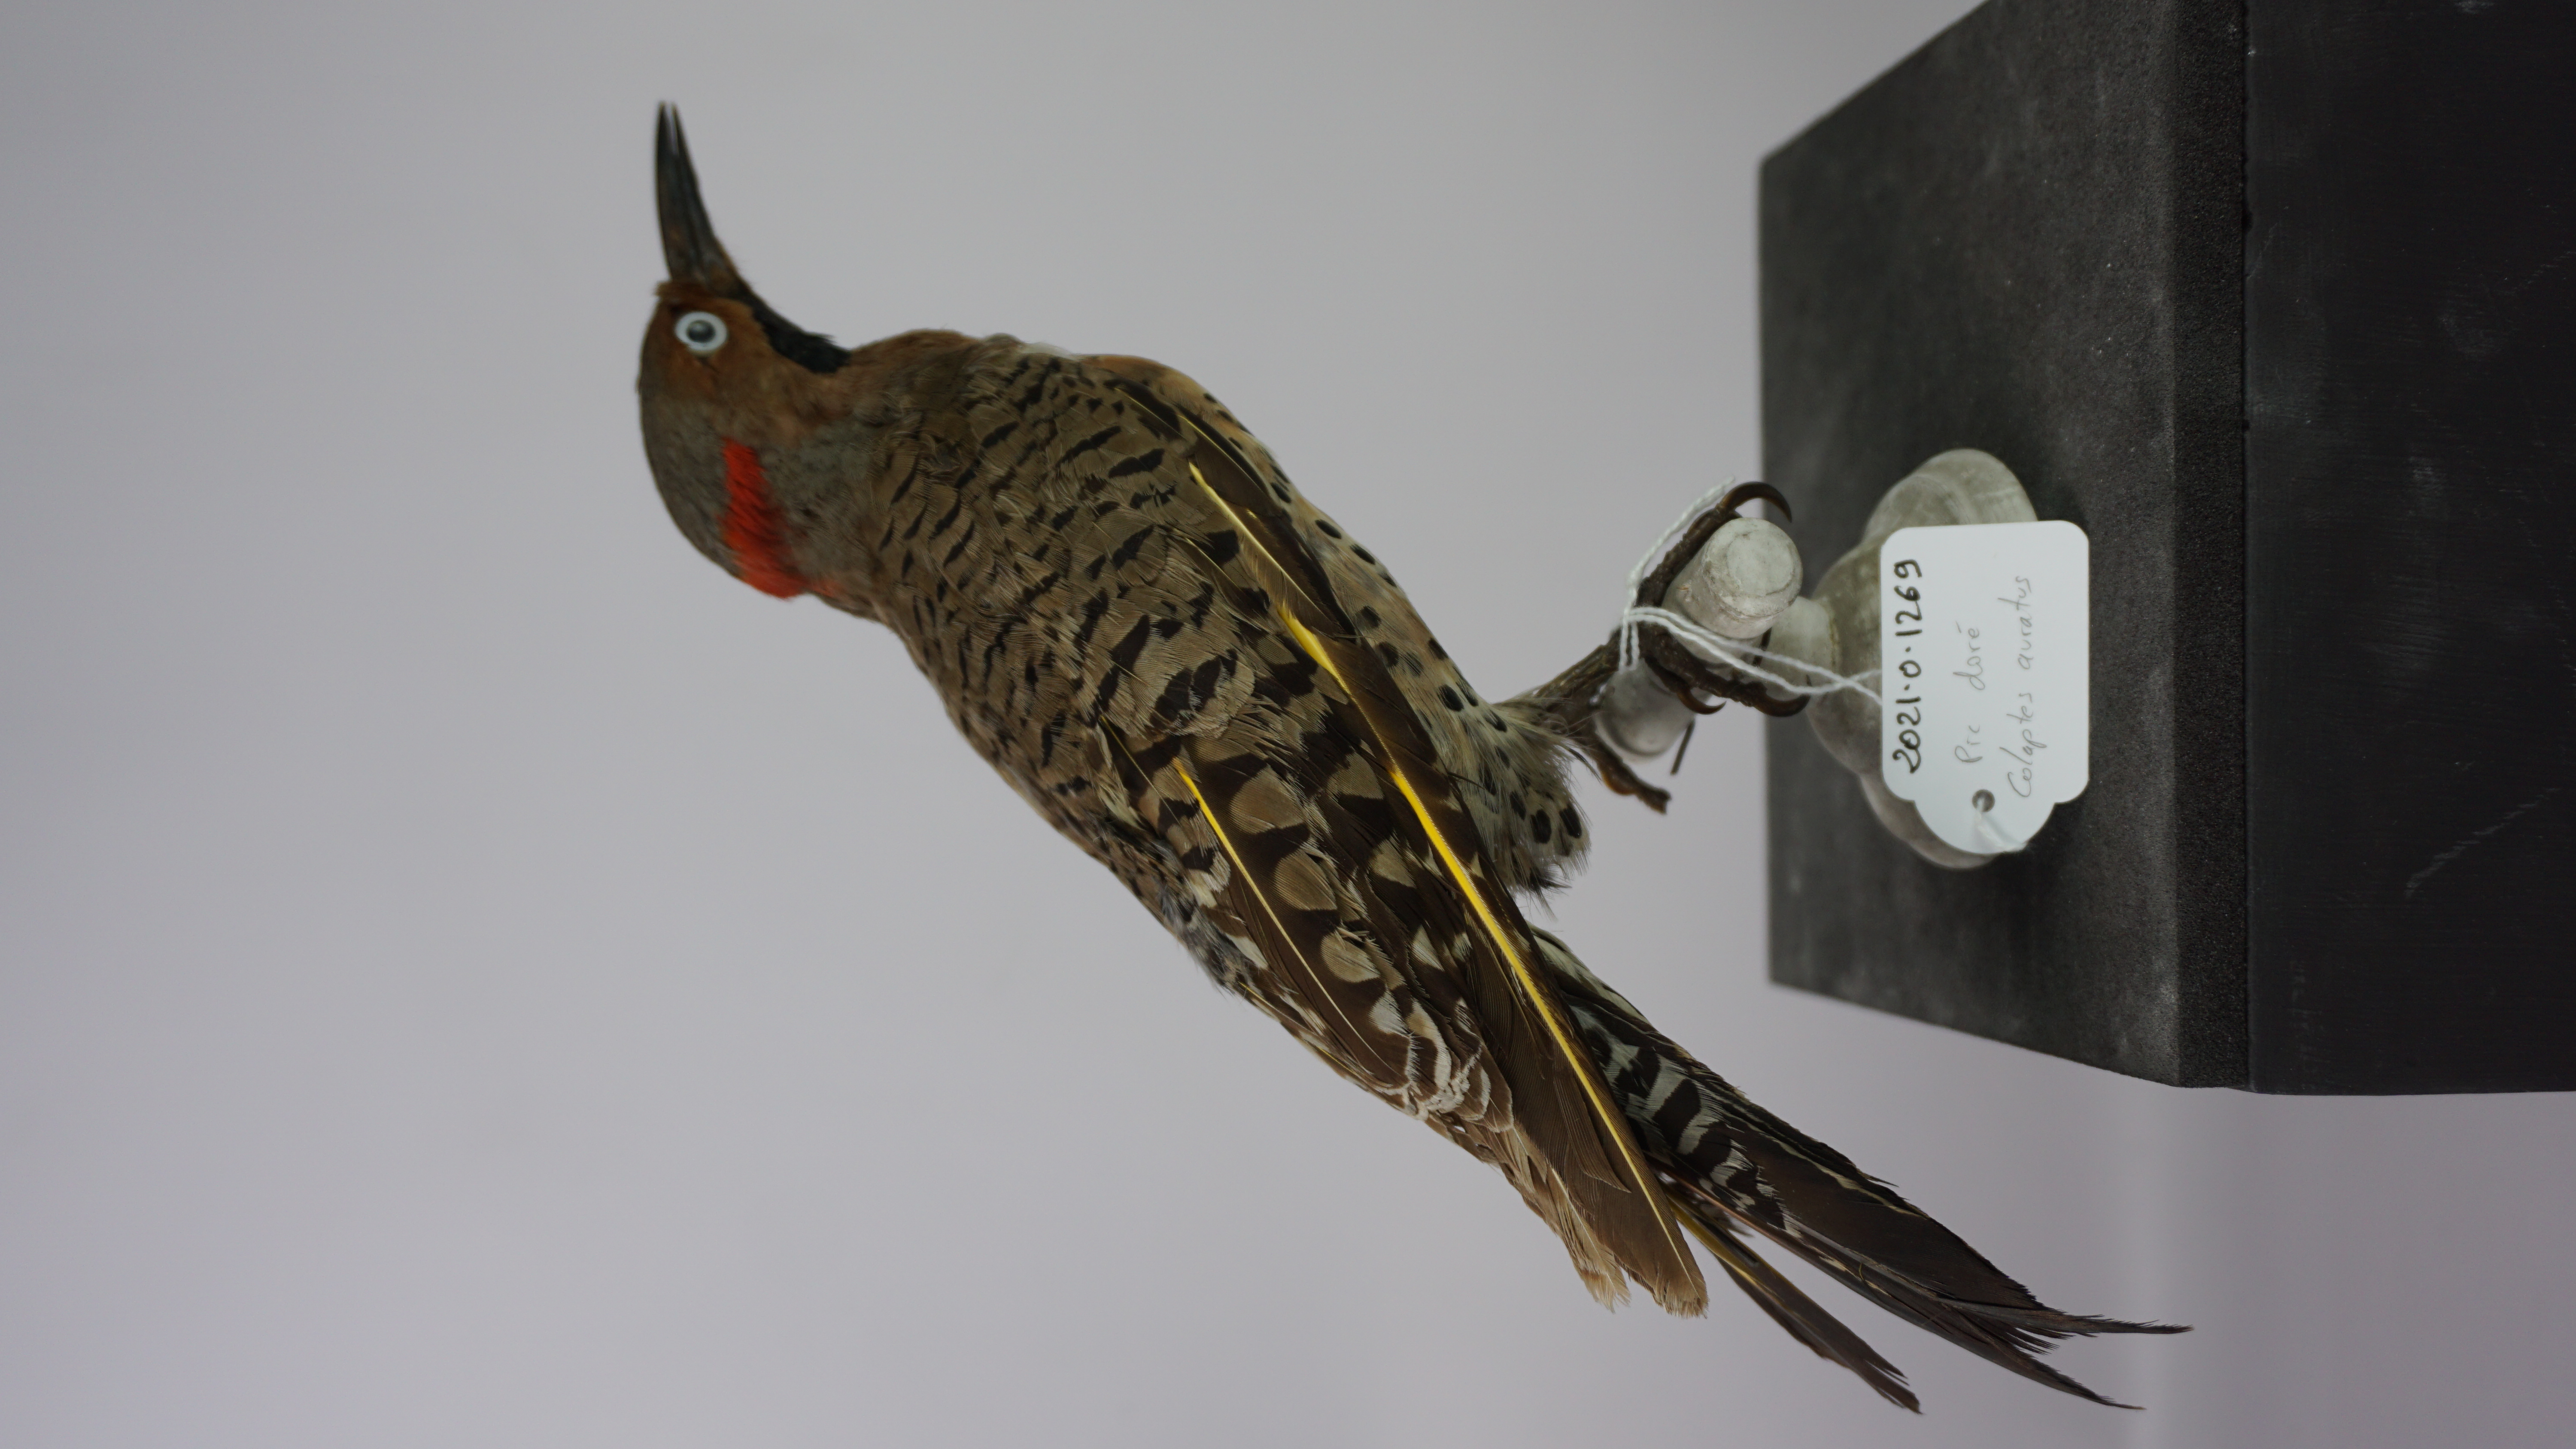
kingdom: Animalia
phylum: Chordata
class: Aves
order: Piciformes
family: Picidae
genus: Colaptes
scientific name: Colaptes auratus
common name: Northern flicker
